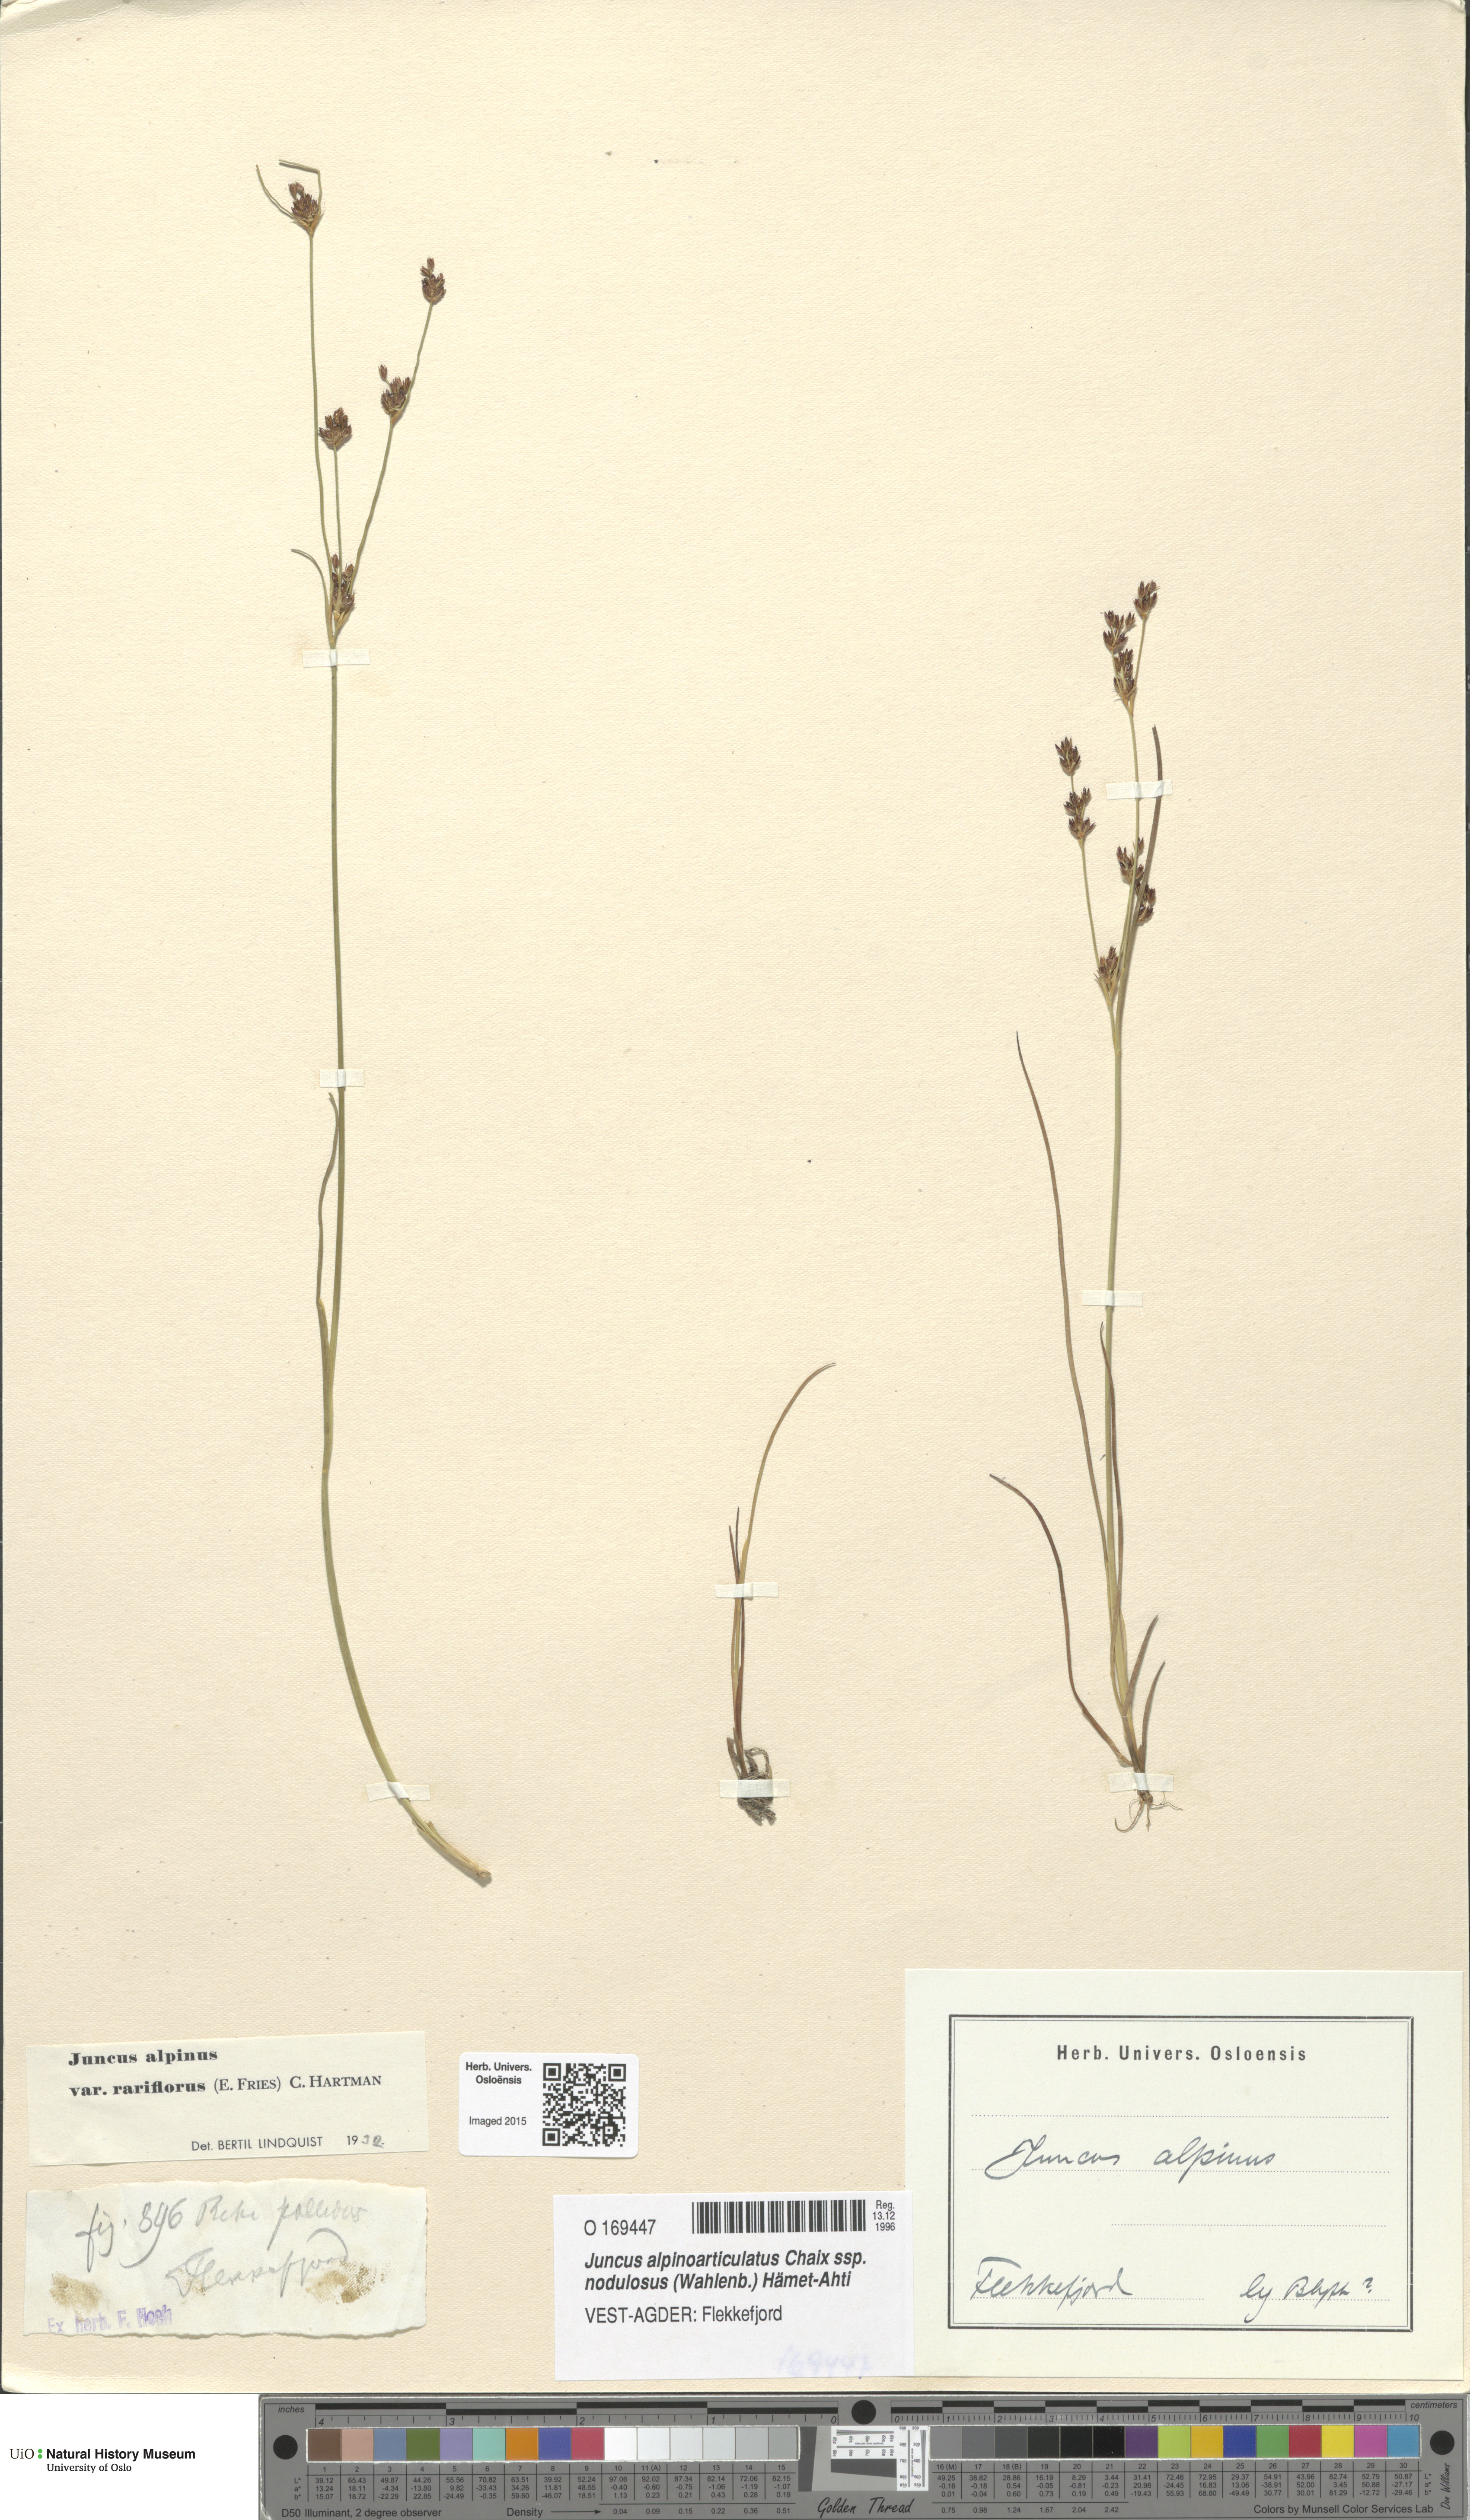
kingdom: Plantae
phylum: Tracheophyta
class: Liliopsida
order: Poales
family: Juncaceae
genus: Juncus
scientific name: Juncus alpinoarticulatus
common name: Alpine rush
